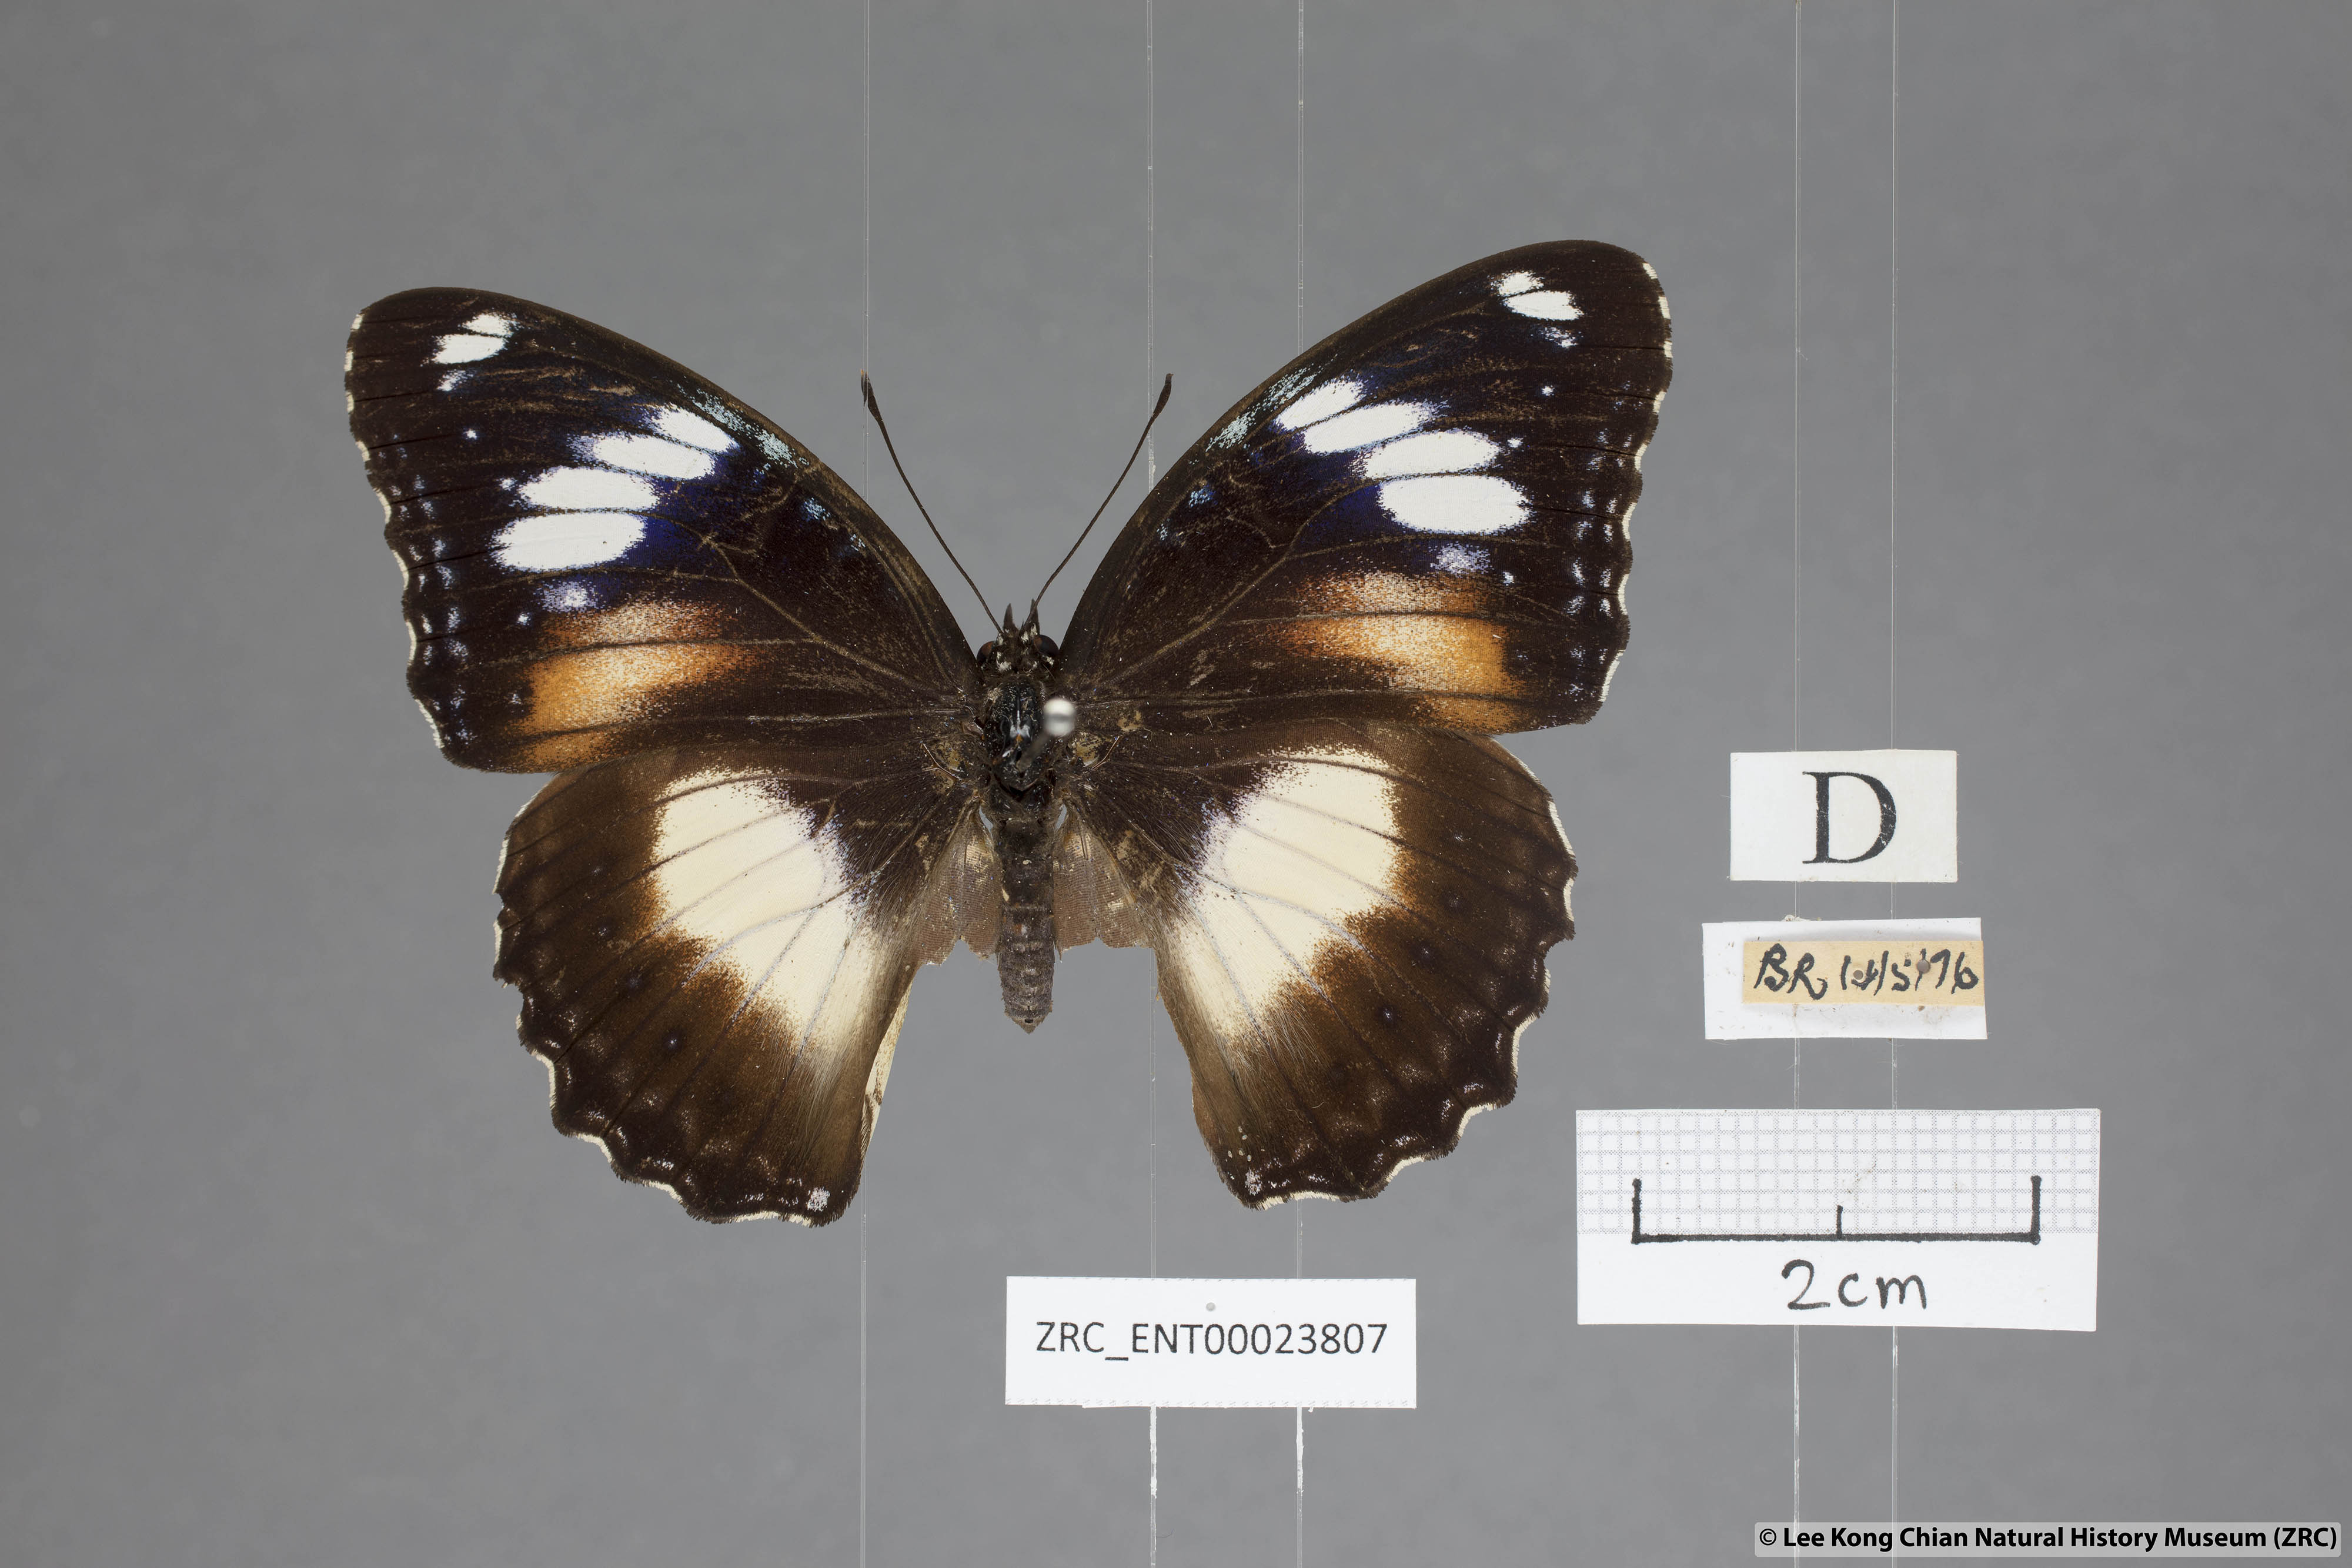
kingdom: Animalia
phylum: Arthropoda
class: Insecta
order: Lepidoptera
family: Nymphalidae
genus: Hypolimnas
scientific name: Hypolimnas bolina
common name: Great eggfly
